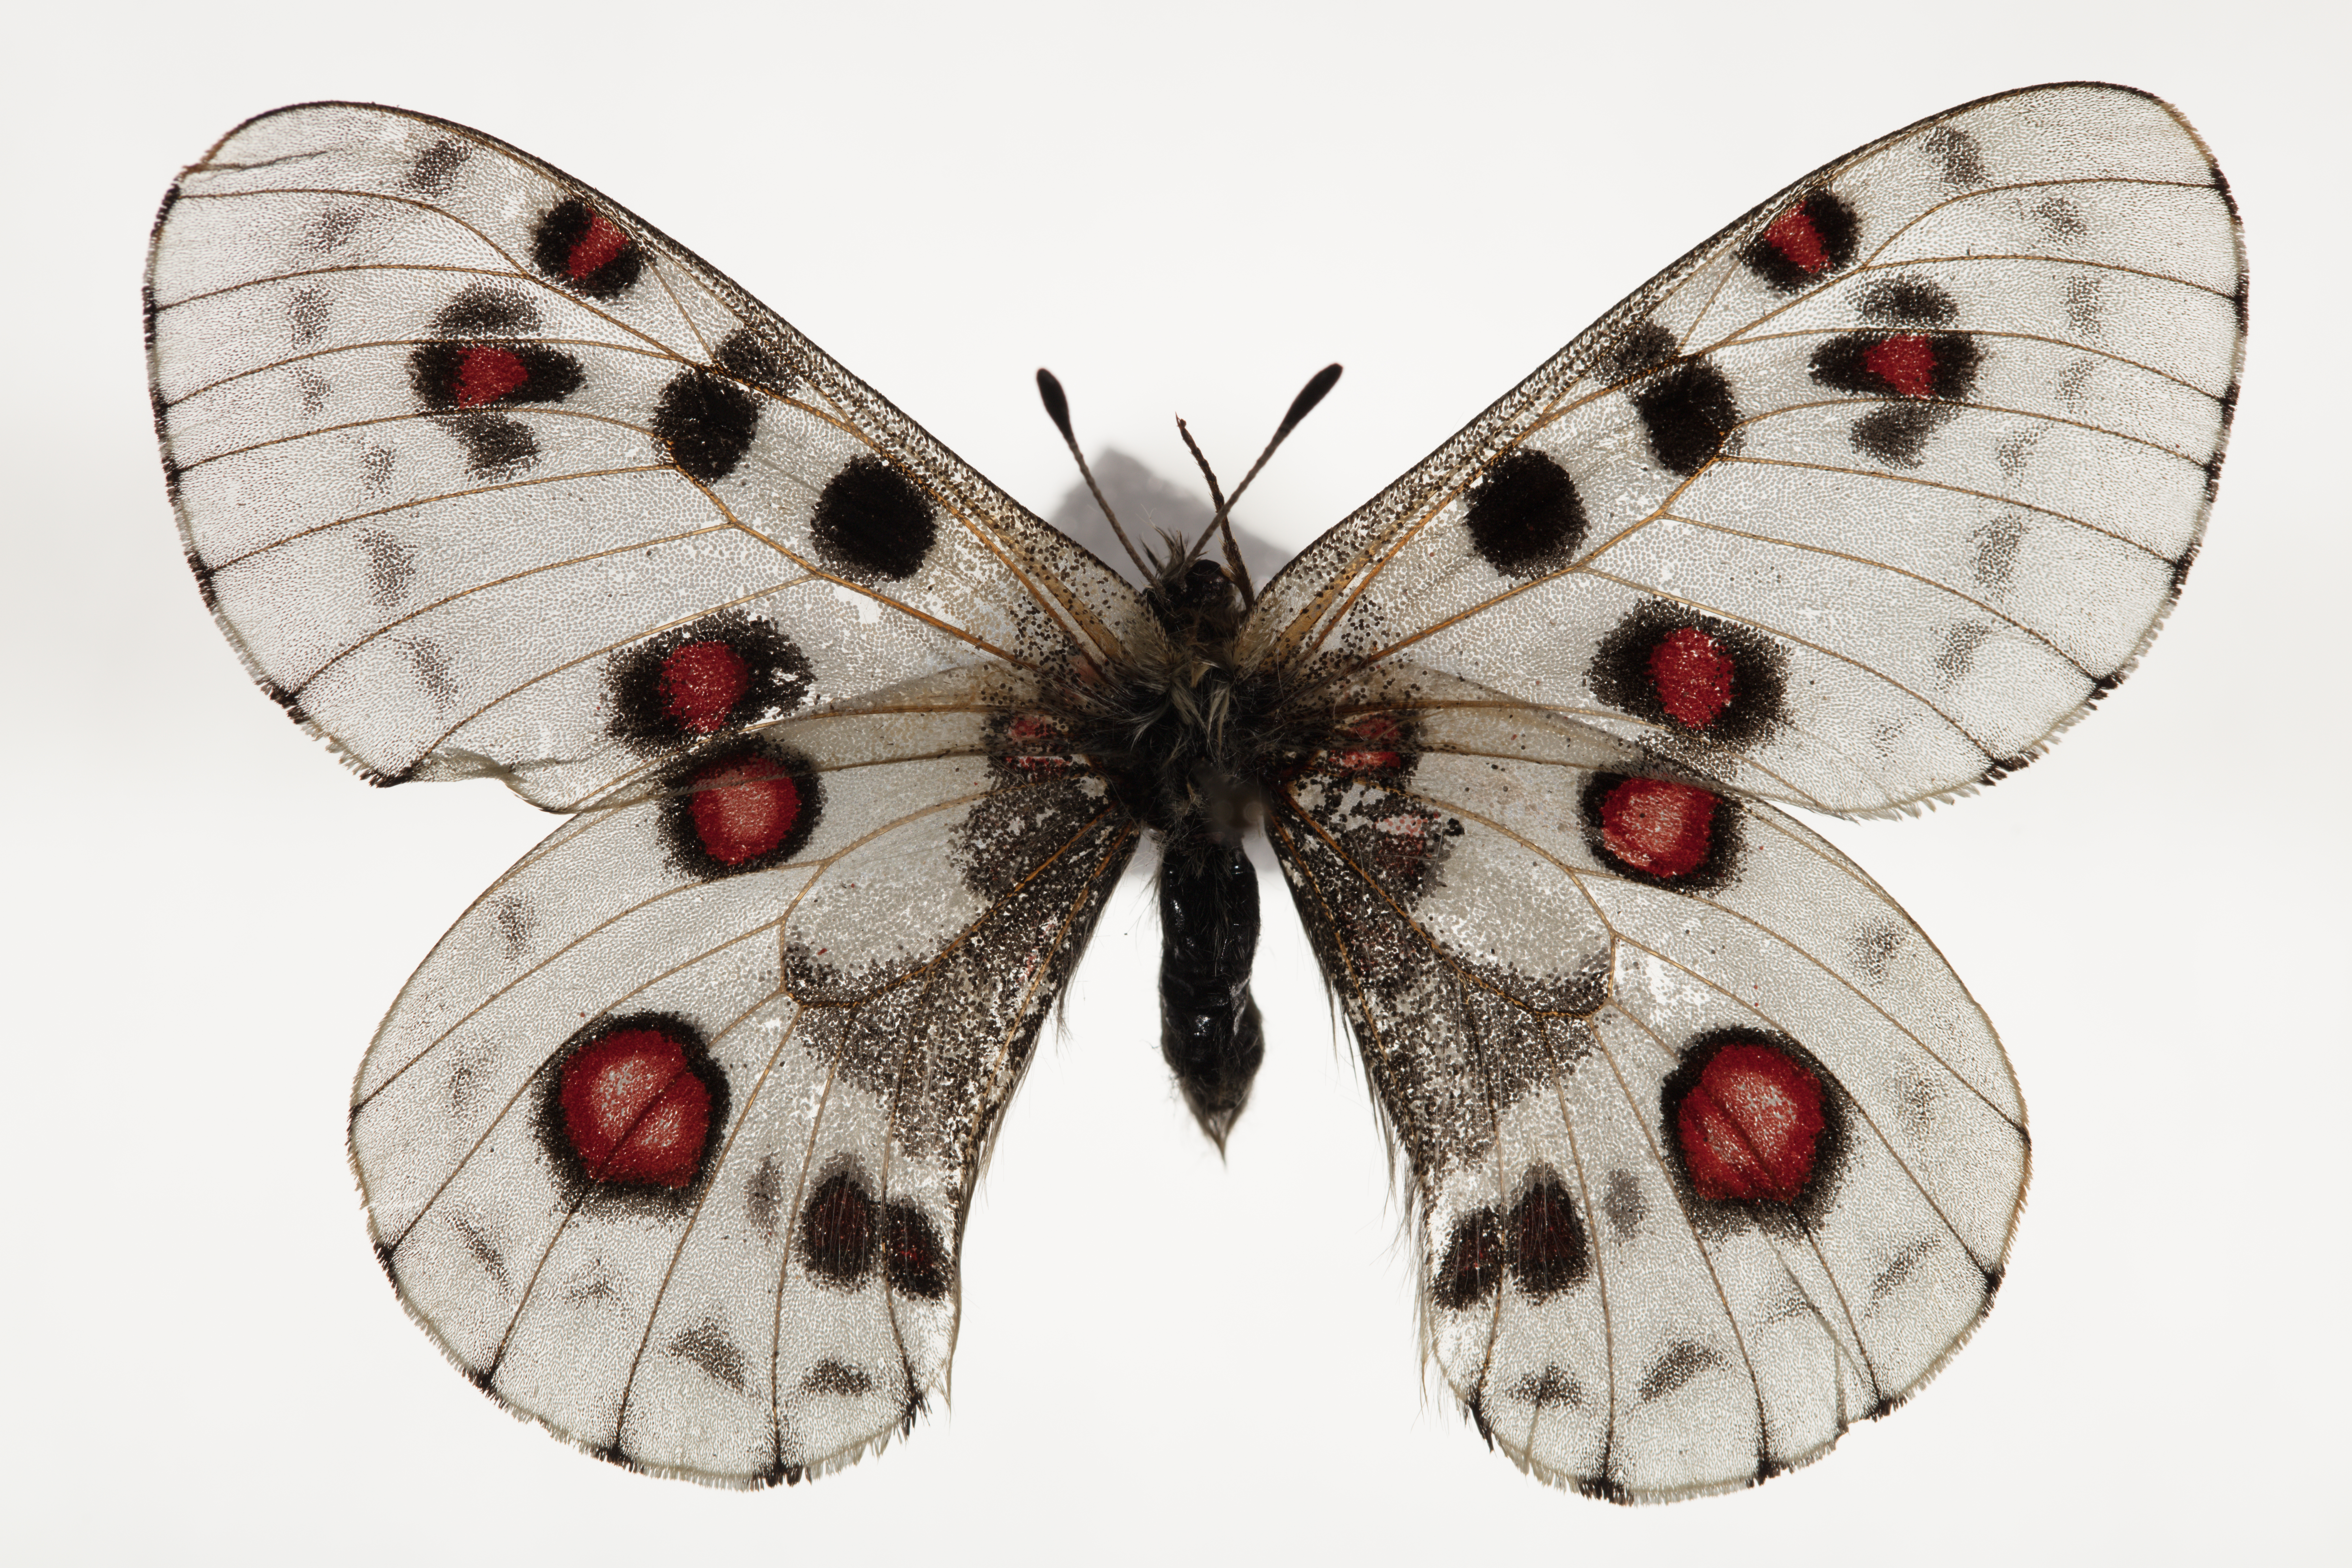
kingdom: Animalia
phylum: Arthropoda
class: Insecta
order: Lepidoptera
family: Papilionidae
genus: Parnassius
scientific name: Parnassius nomion
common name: Nomion apollo
